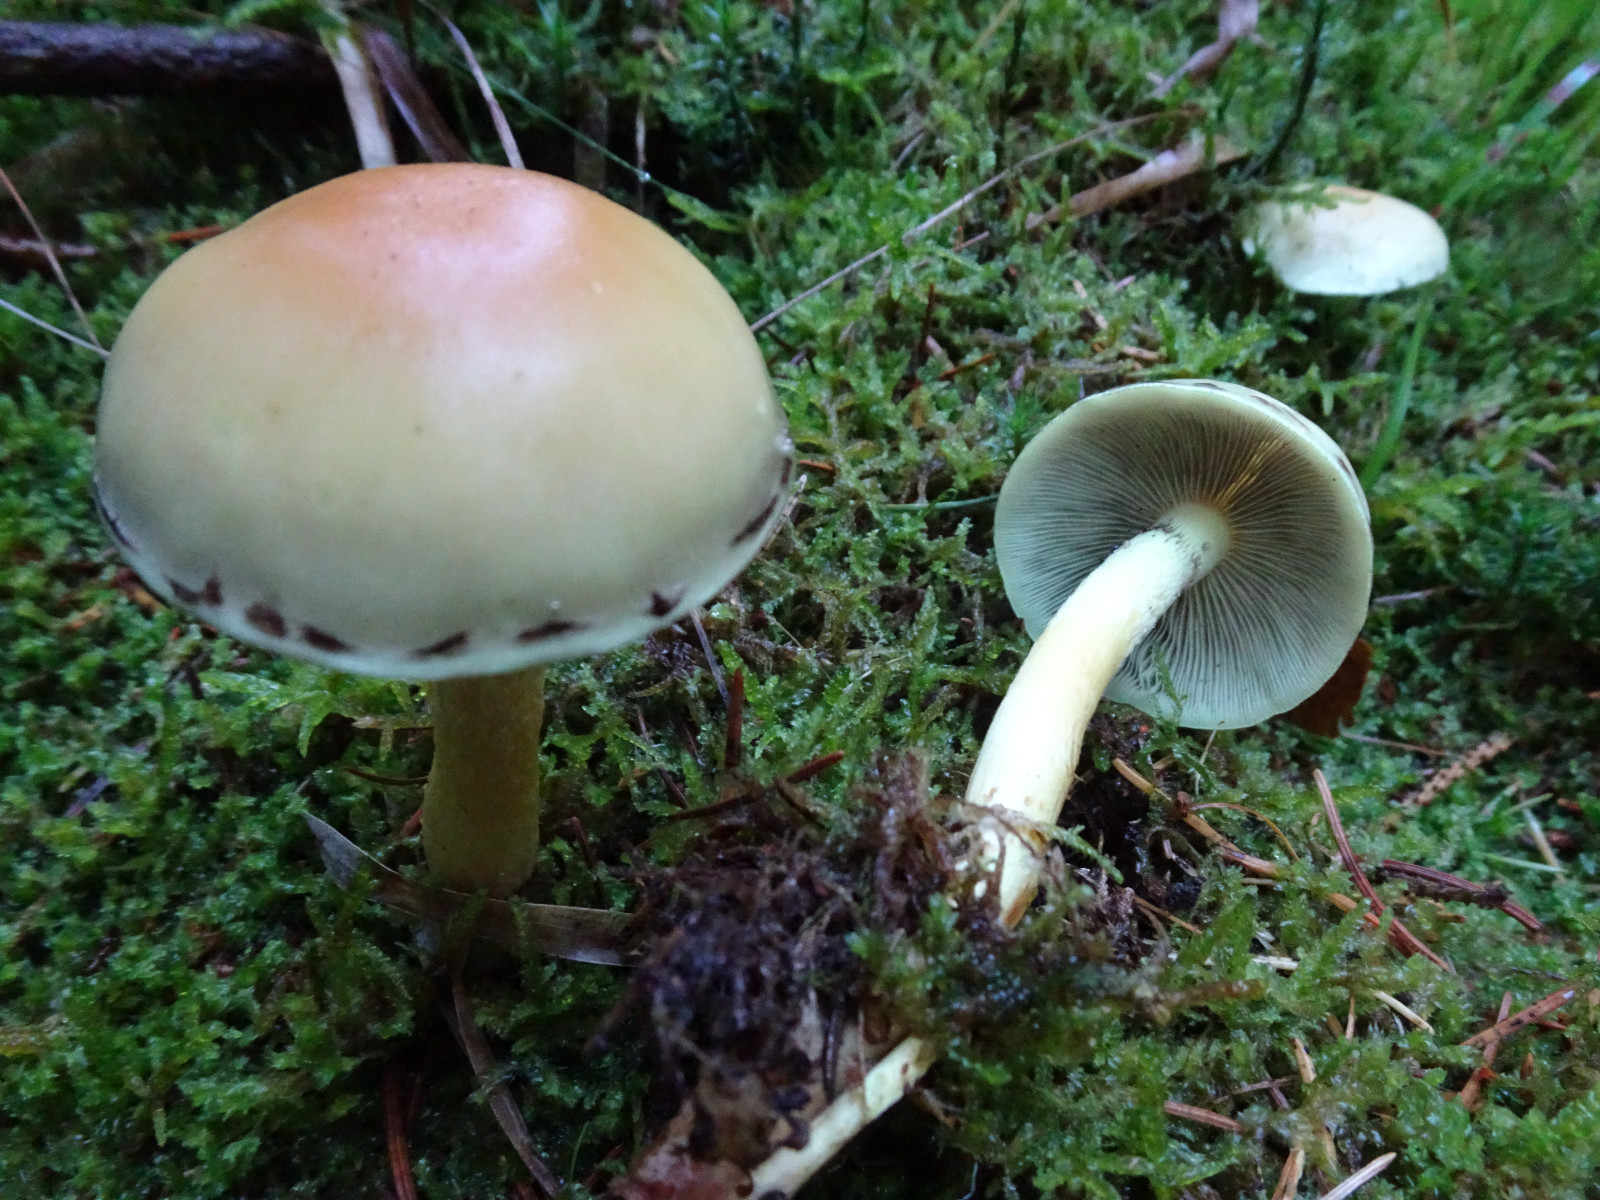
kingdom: Fungi
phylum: Basidiomycota
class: Agaricomycetes
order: Agaricales
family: Strophariaceae
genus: Hypholoma
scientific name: Hypholoma capnoides
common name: gran-svovlhat
